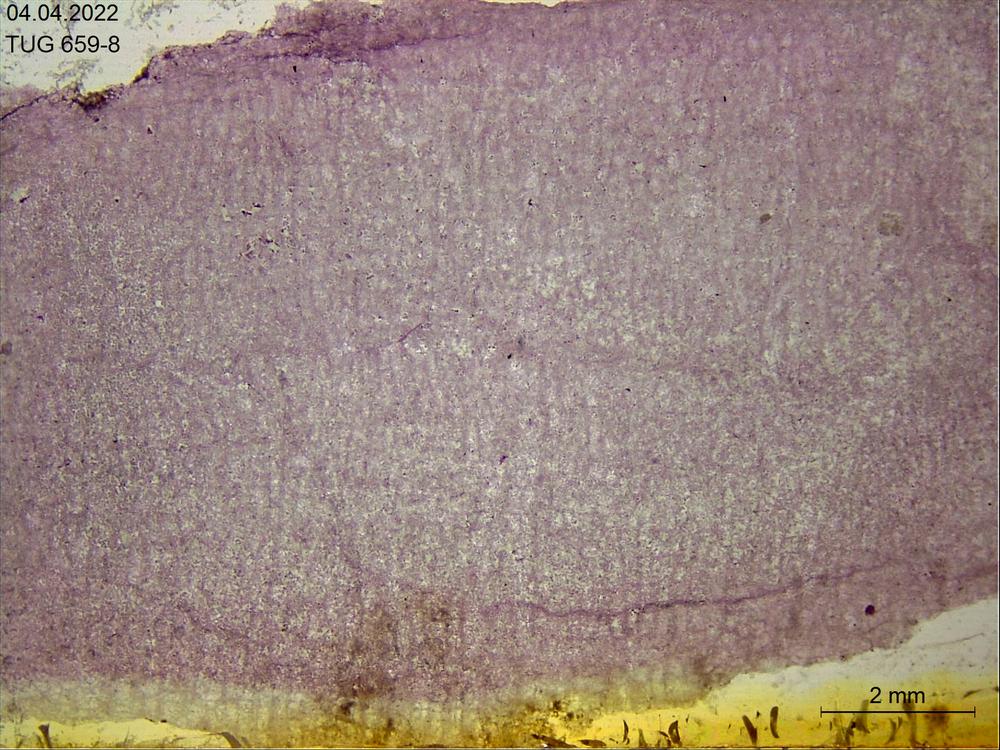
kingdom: Animalia
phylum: Porifera
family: Actinostromatidae
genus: Plectostroma
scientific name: Plectostroma Actinostroma intertextum
